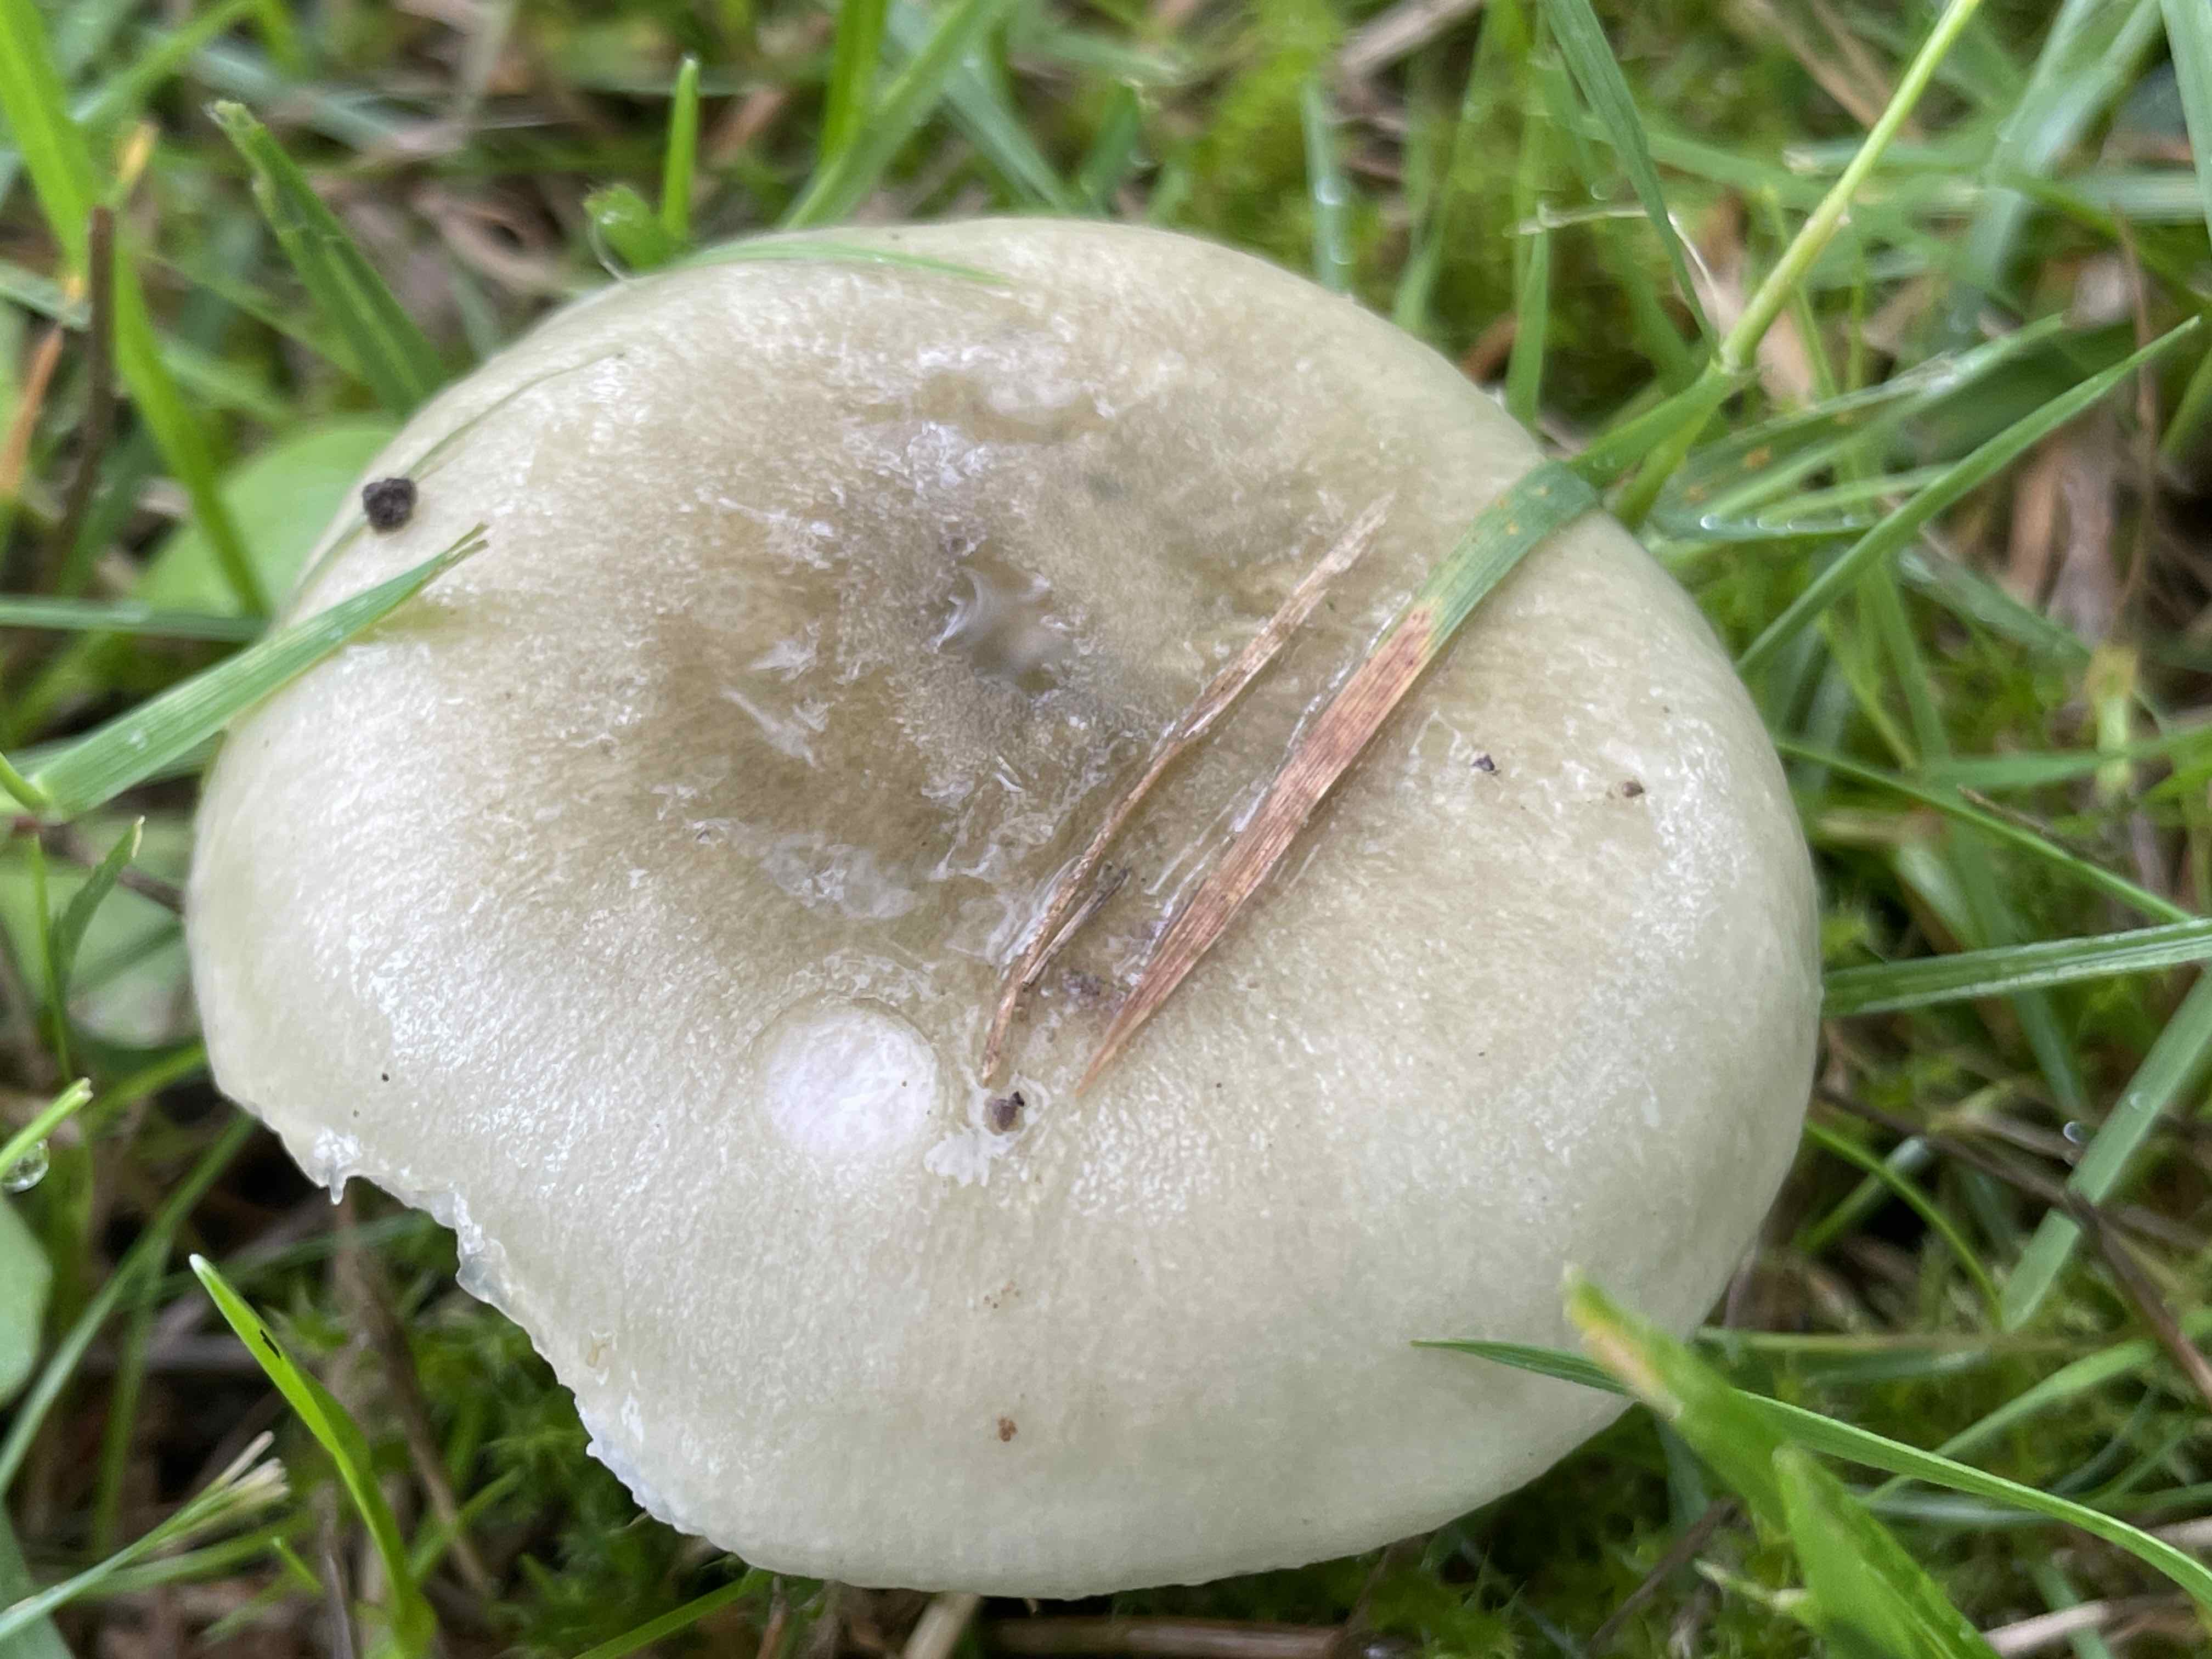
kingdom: Fungi
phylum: Basidiomycota
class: Agaricomycetes
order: Russulales
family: Russulaceae
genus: Russula
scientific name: Russula aeruginea
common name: græsgrøn skørhat
